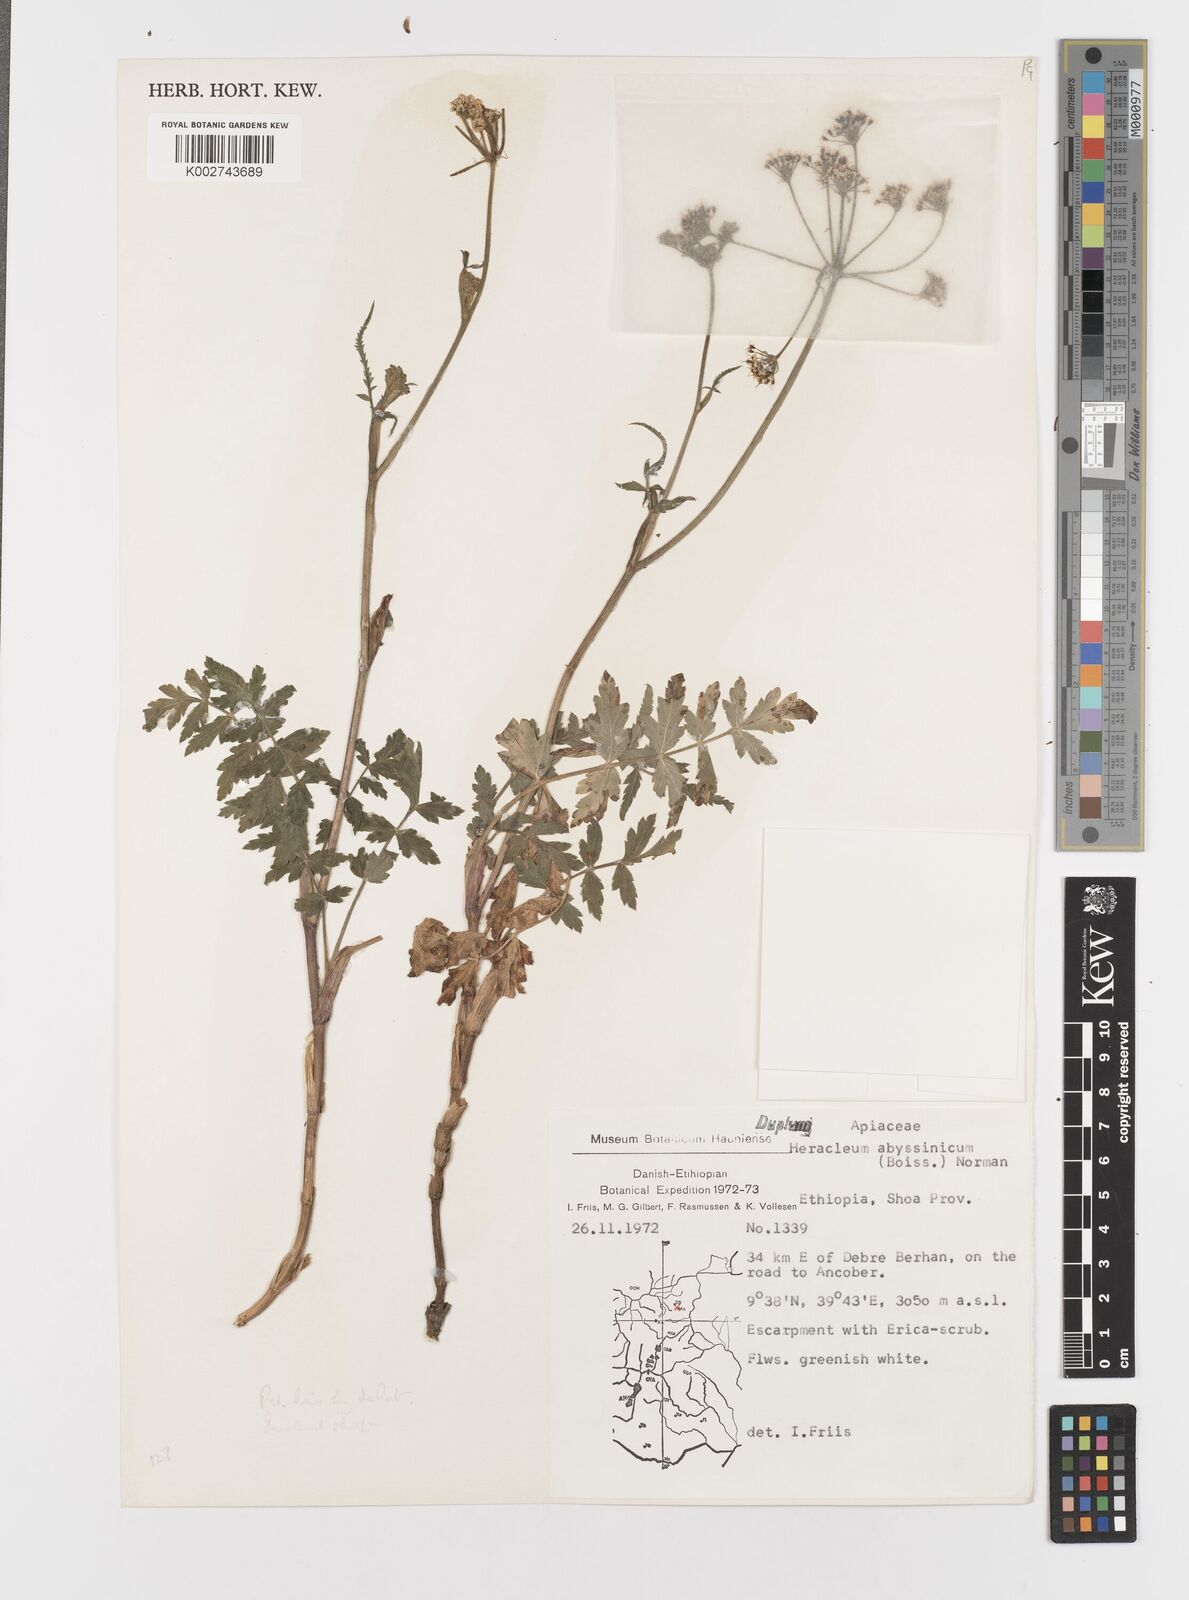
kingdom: Plantae
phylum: Tracheophyta
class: Magnoliopsida
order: Apiales
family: Apiaceae
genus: Heracleum
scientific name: Heracleum abyssinicum
